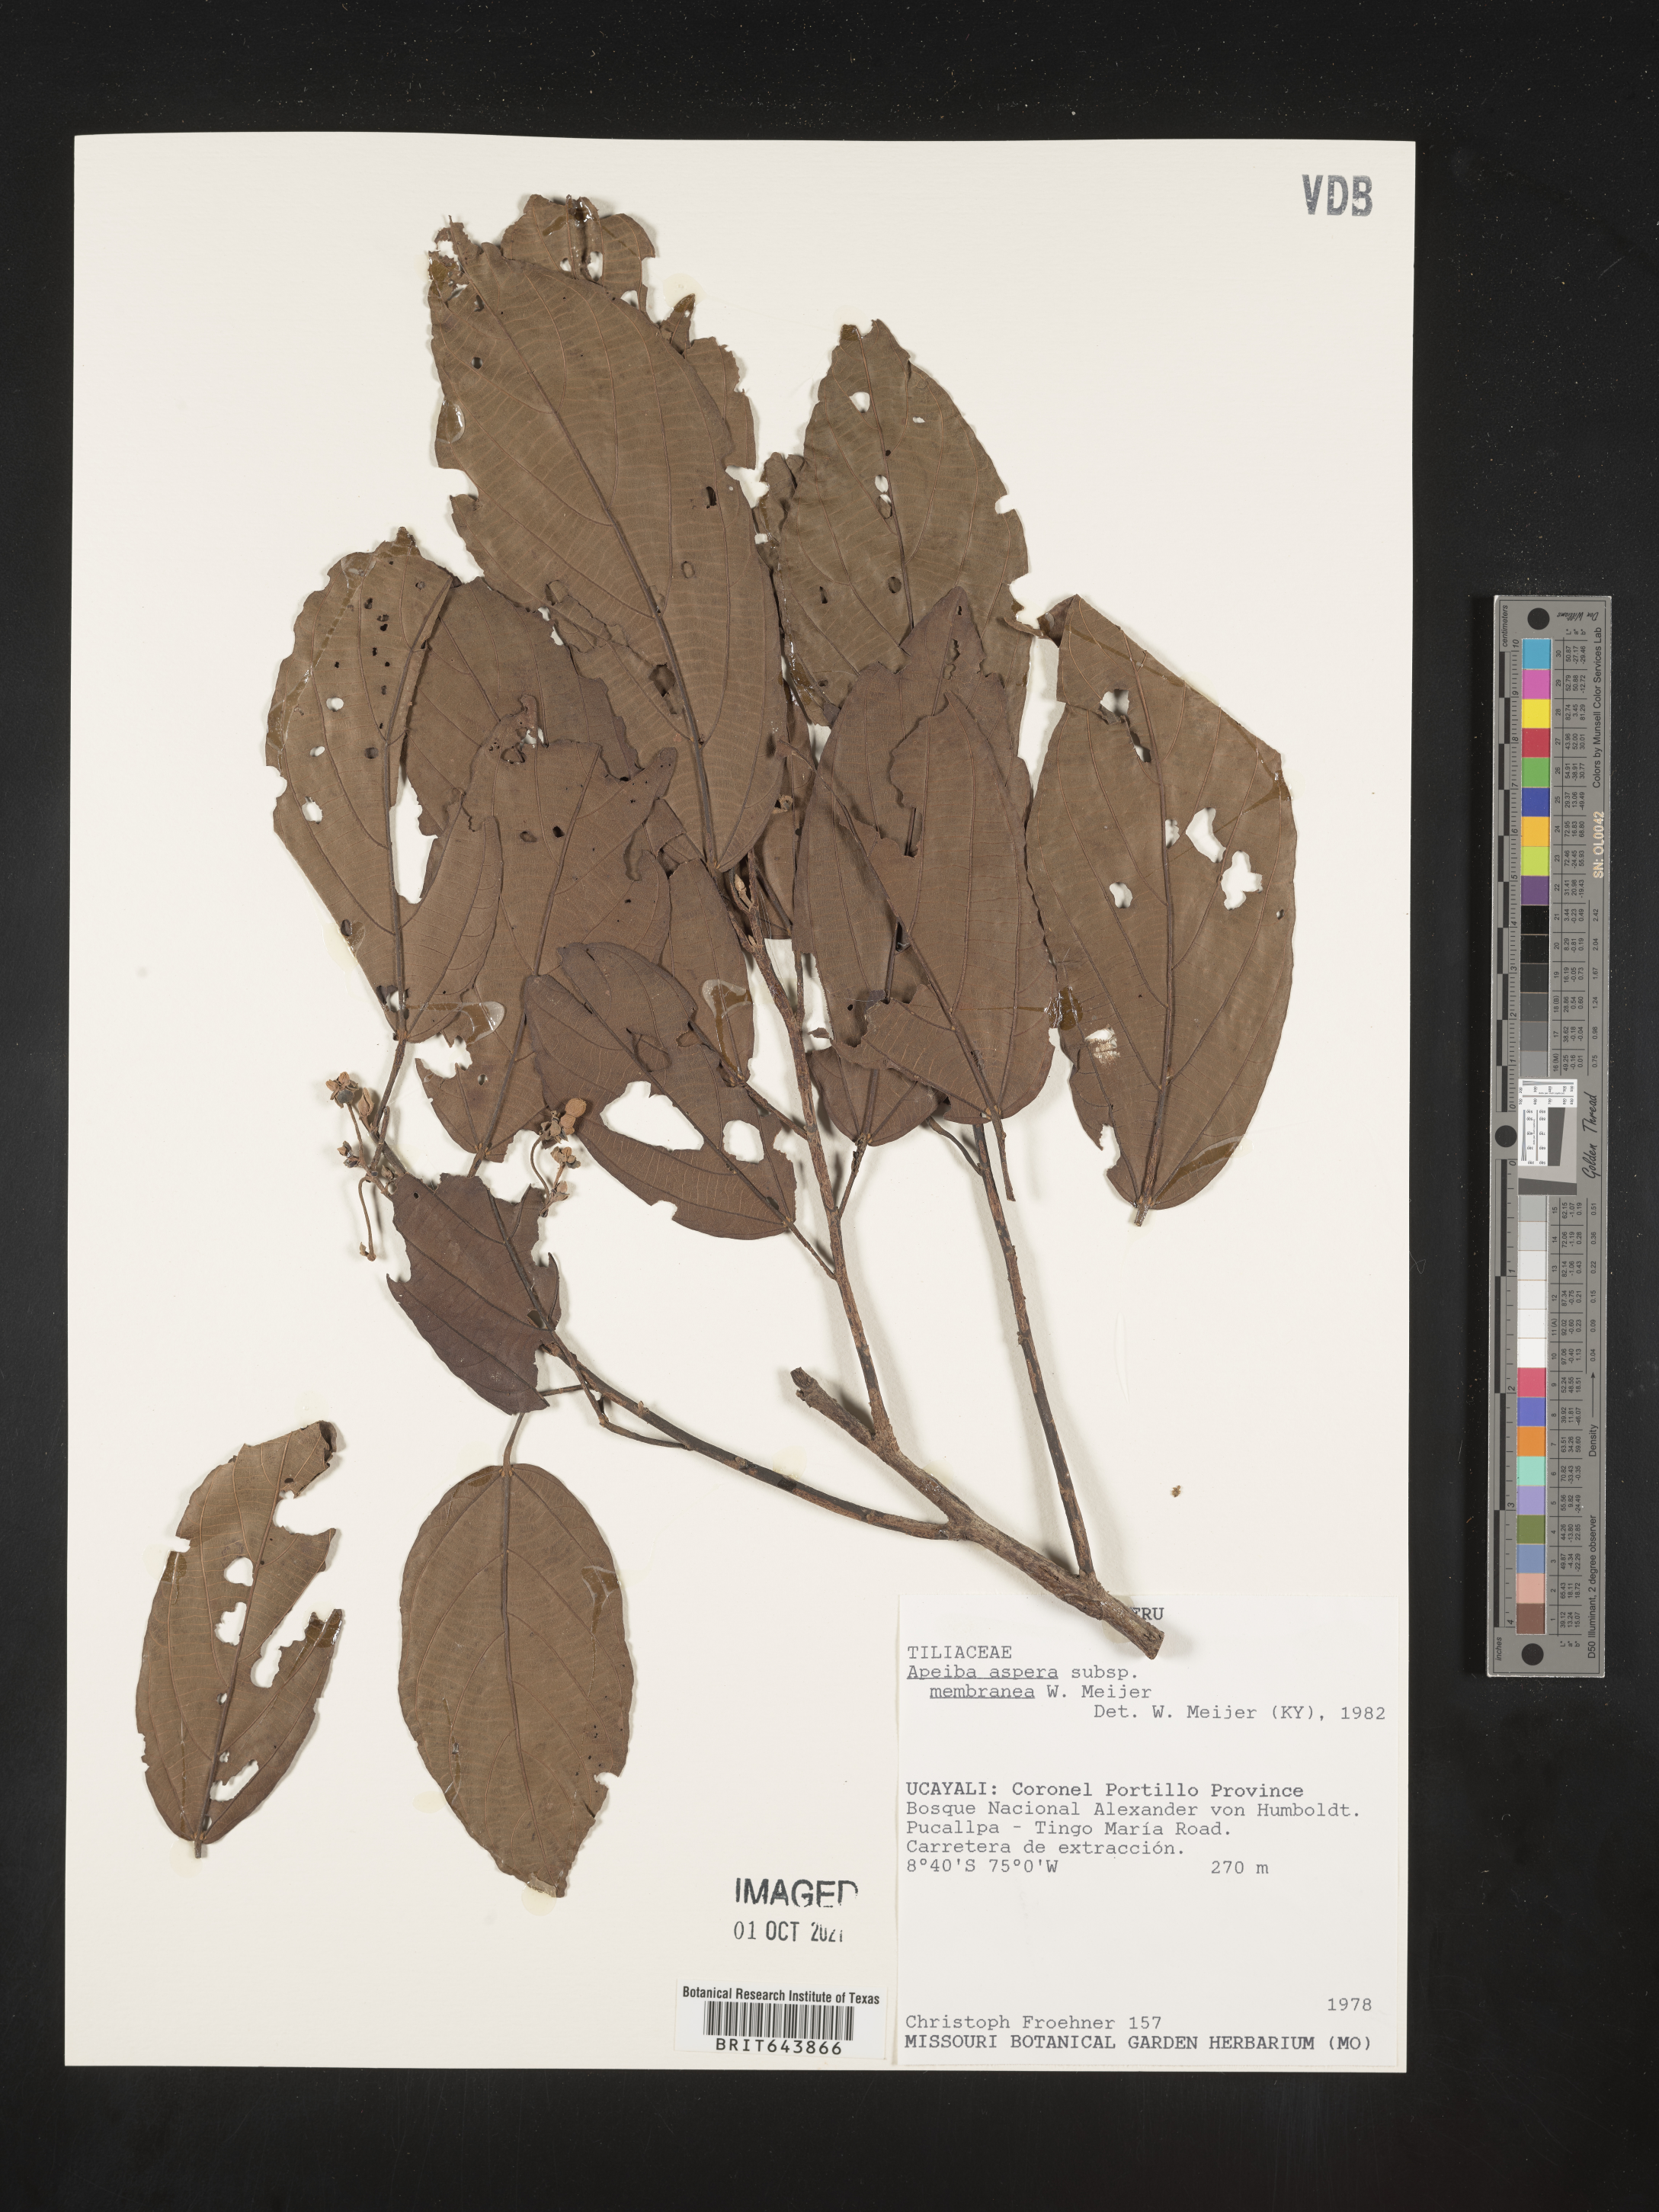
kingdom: Plantae
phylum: Tracheophyta
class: Magnoliopsida
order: Malvales
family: Malvaceae
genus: Apeiba
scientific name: Apeiba
